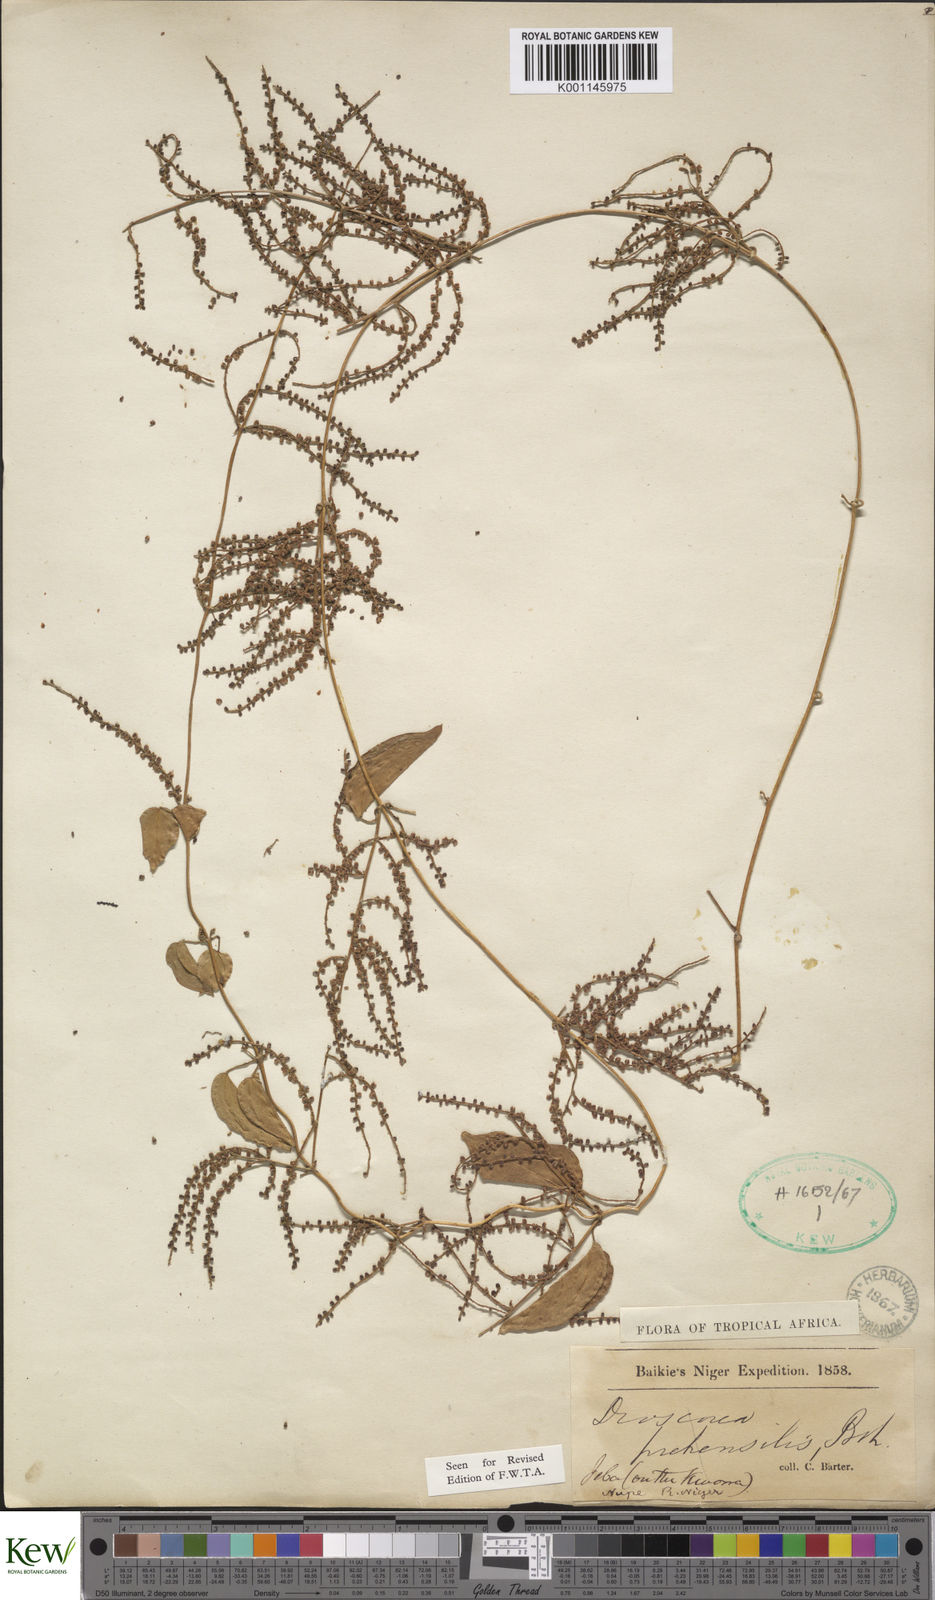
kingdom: Plantae
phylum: Tracheophyta
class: Liliopsida
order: Dioscoreales
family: Dioscoreaceae
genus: Dioscorea
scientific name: Dioscorea praehensilis
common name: Bush yam
